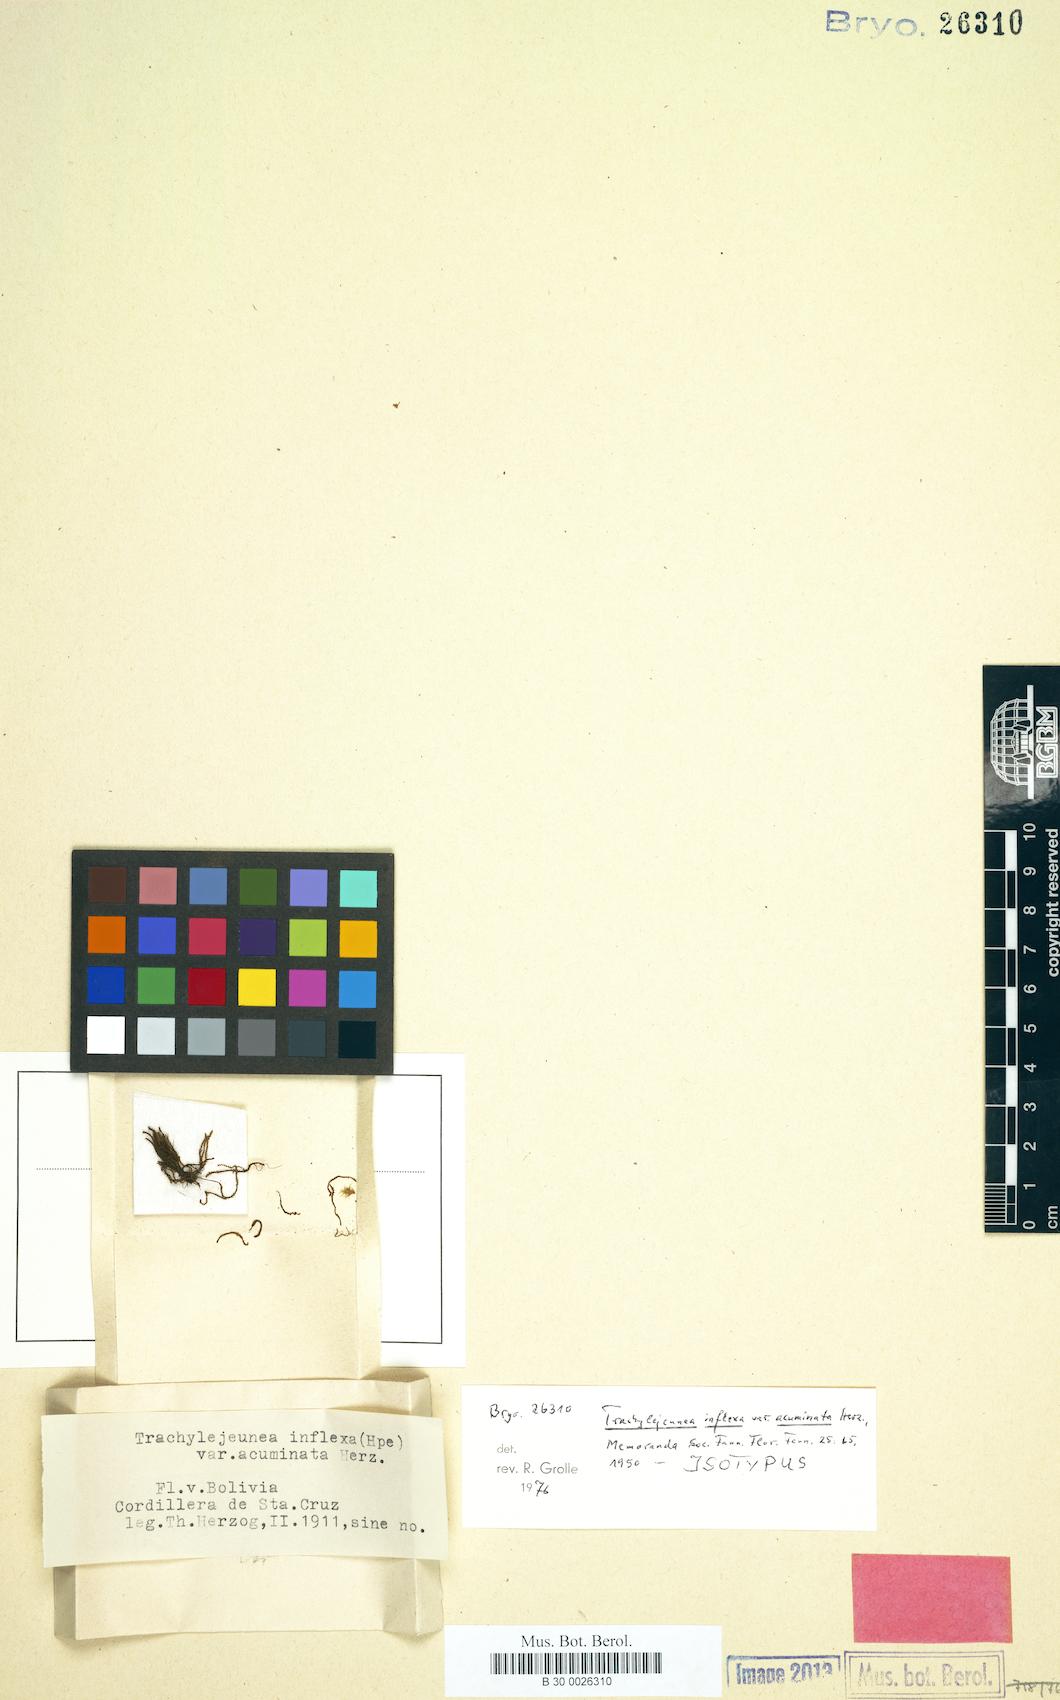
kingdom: Plantae
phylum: Marchantiophyta
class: Jungermanniopsida
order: Porellales
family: Lejeuneaceae
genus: Cheilolejeunea
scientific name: Cheilolejeunea inflexa
